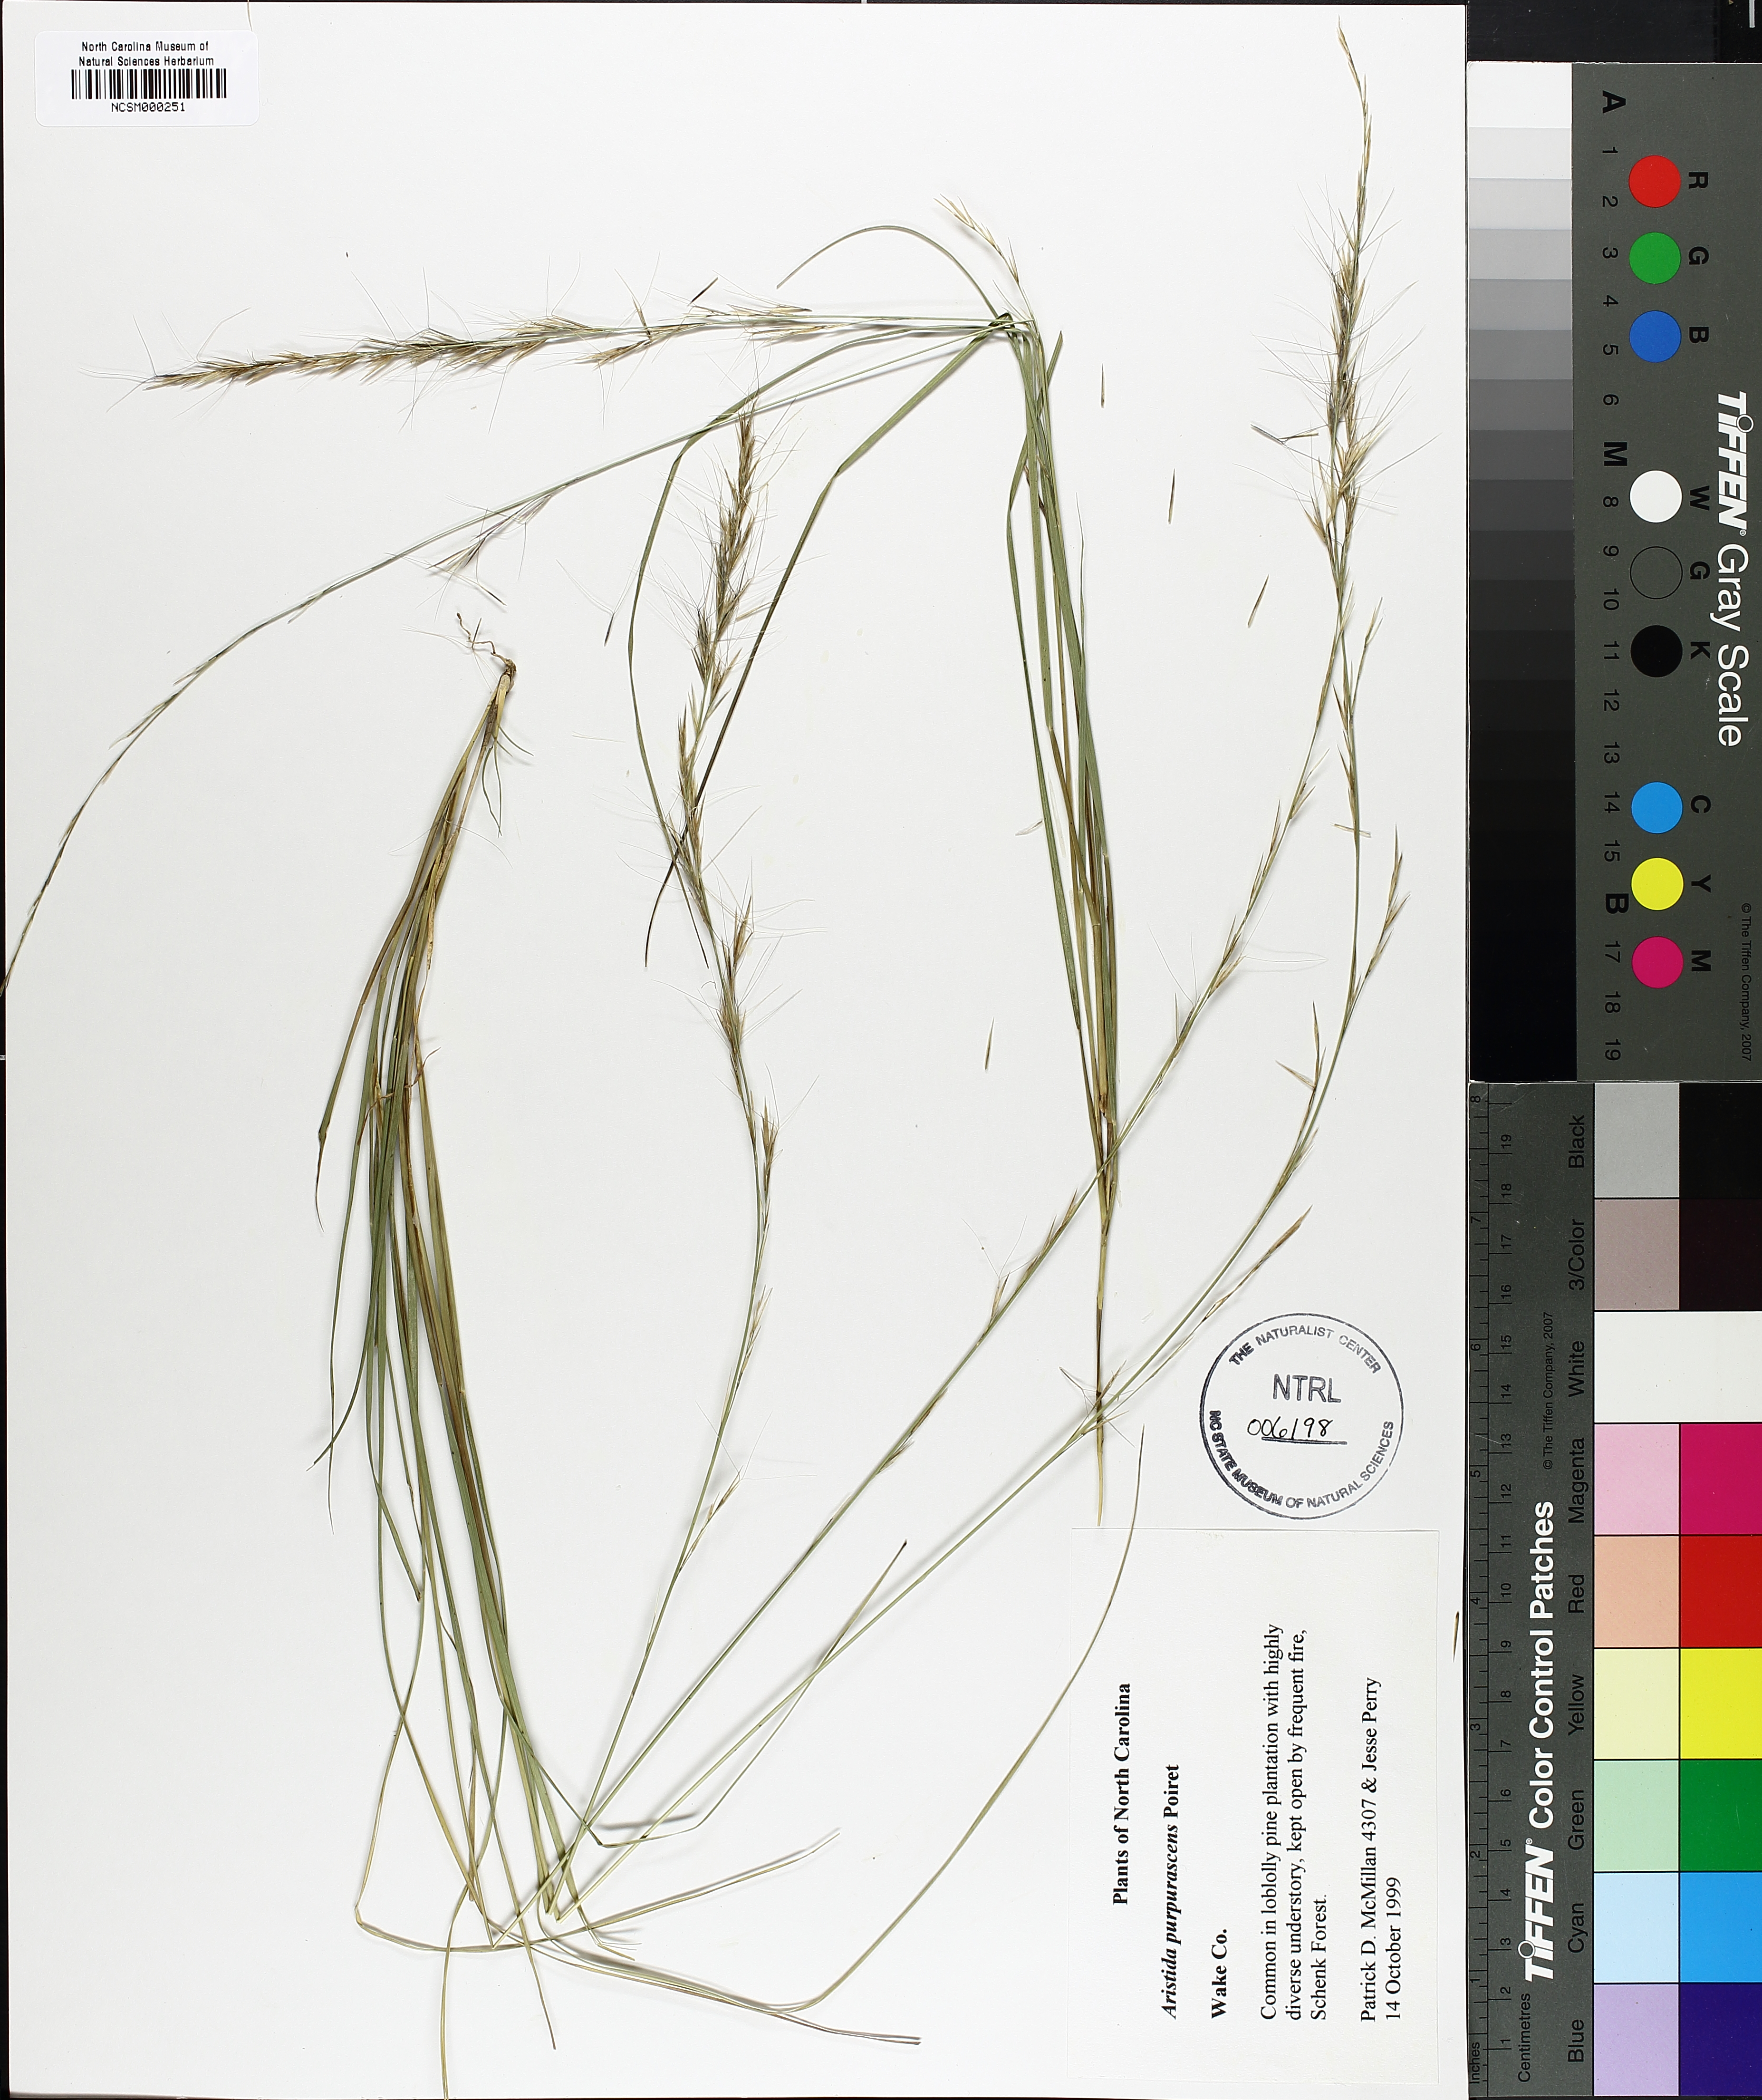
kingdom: Plantae
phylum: Tracheophyta
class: Liliopsida
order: Poales
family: Poaceae
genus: Aristida
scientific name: Aristida purpurascens
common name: Arrow-feather
